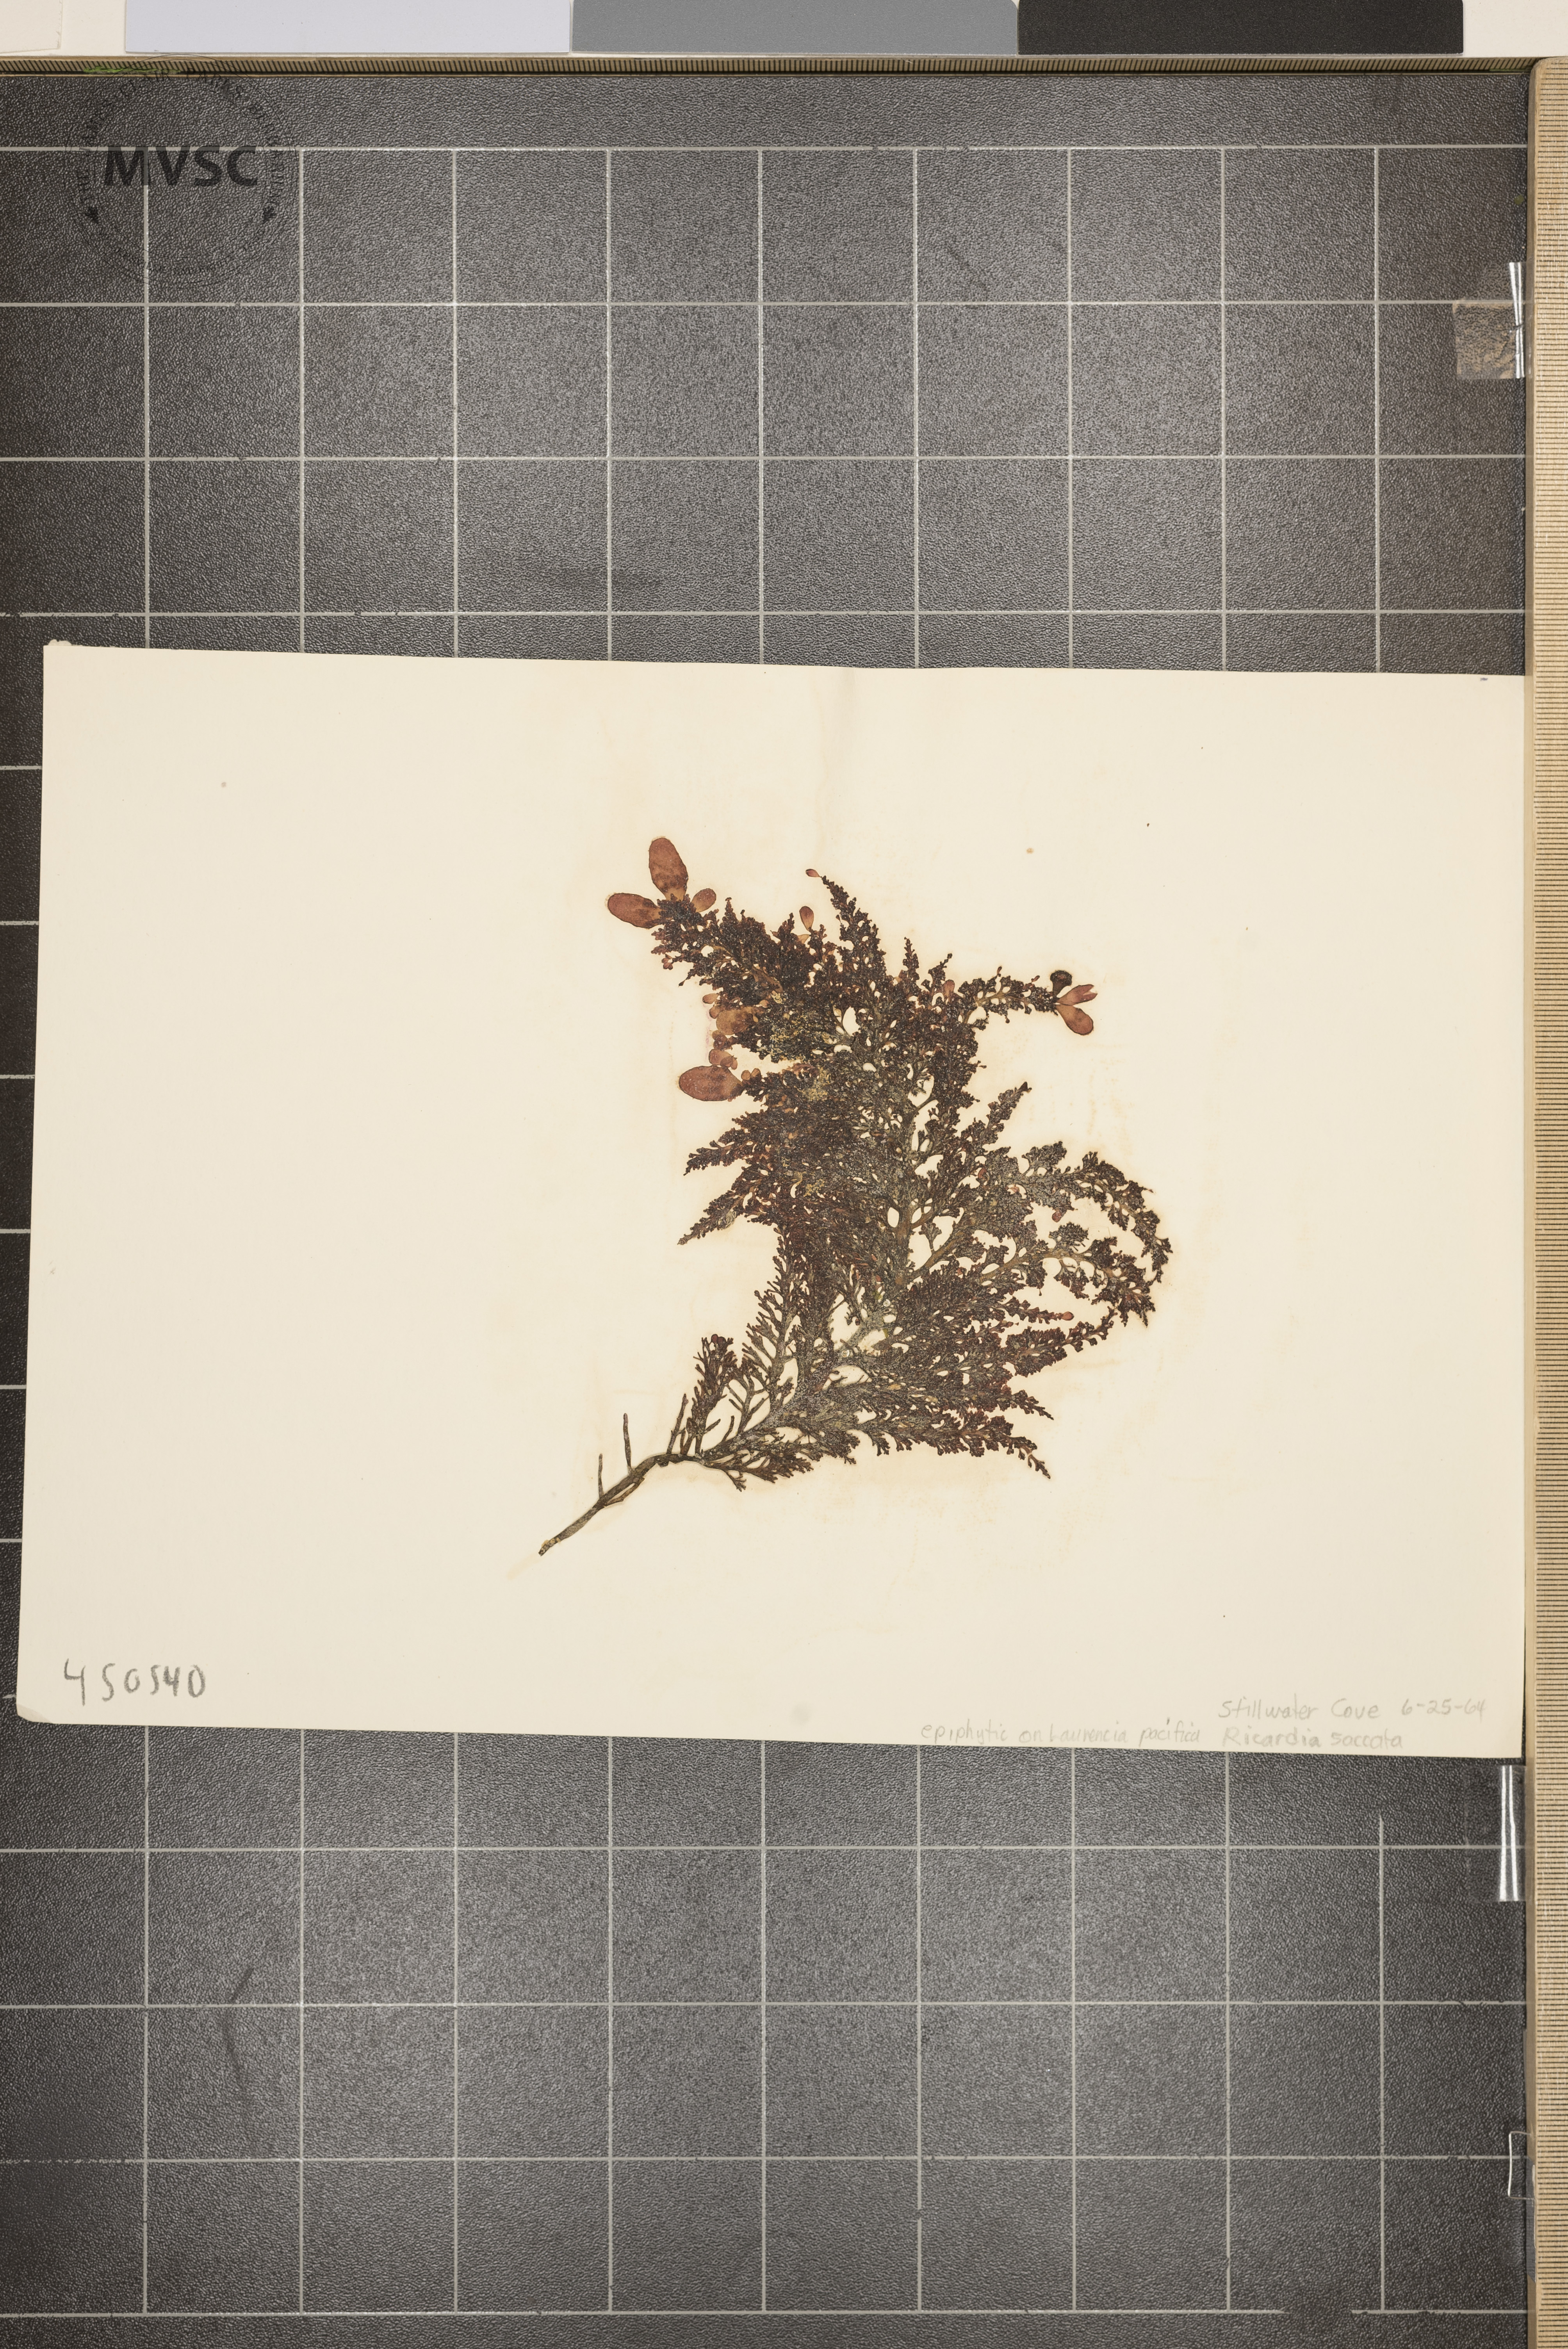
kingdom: Plantae
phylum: Tracheophyta
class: Magnoliopsida
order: Gentianales
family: Rubiaceae
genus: Richardia
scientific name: Richardia
